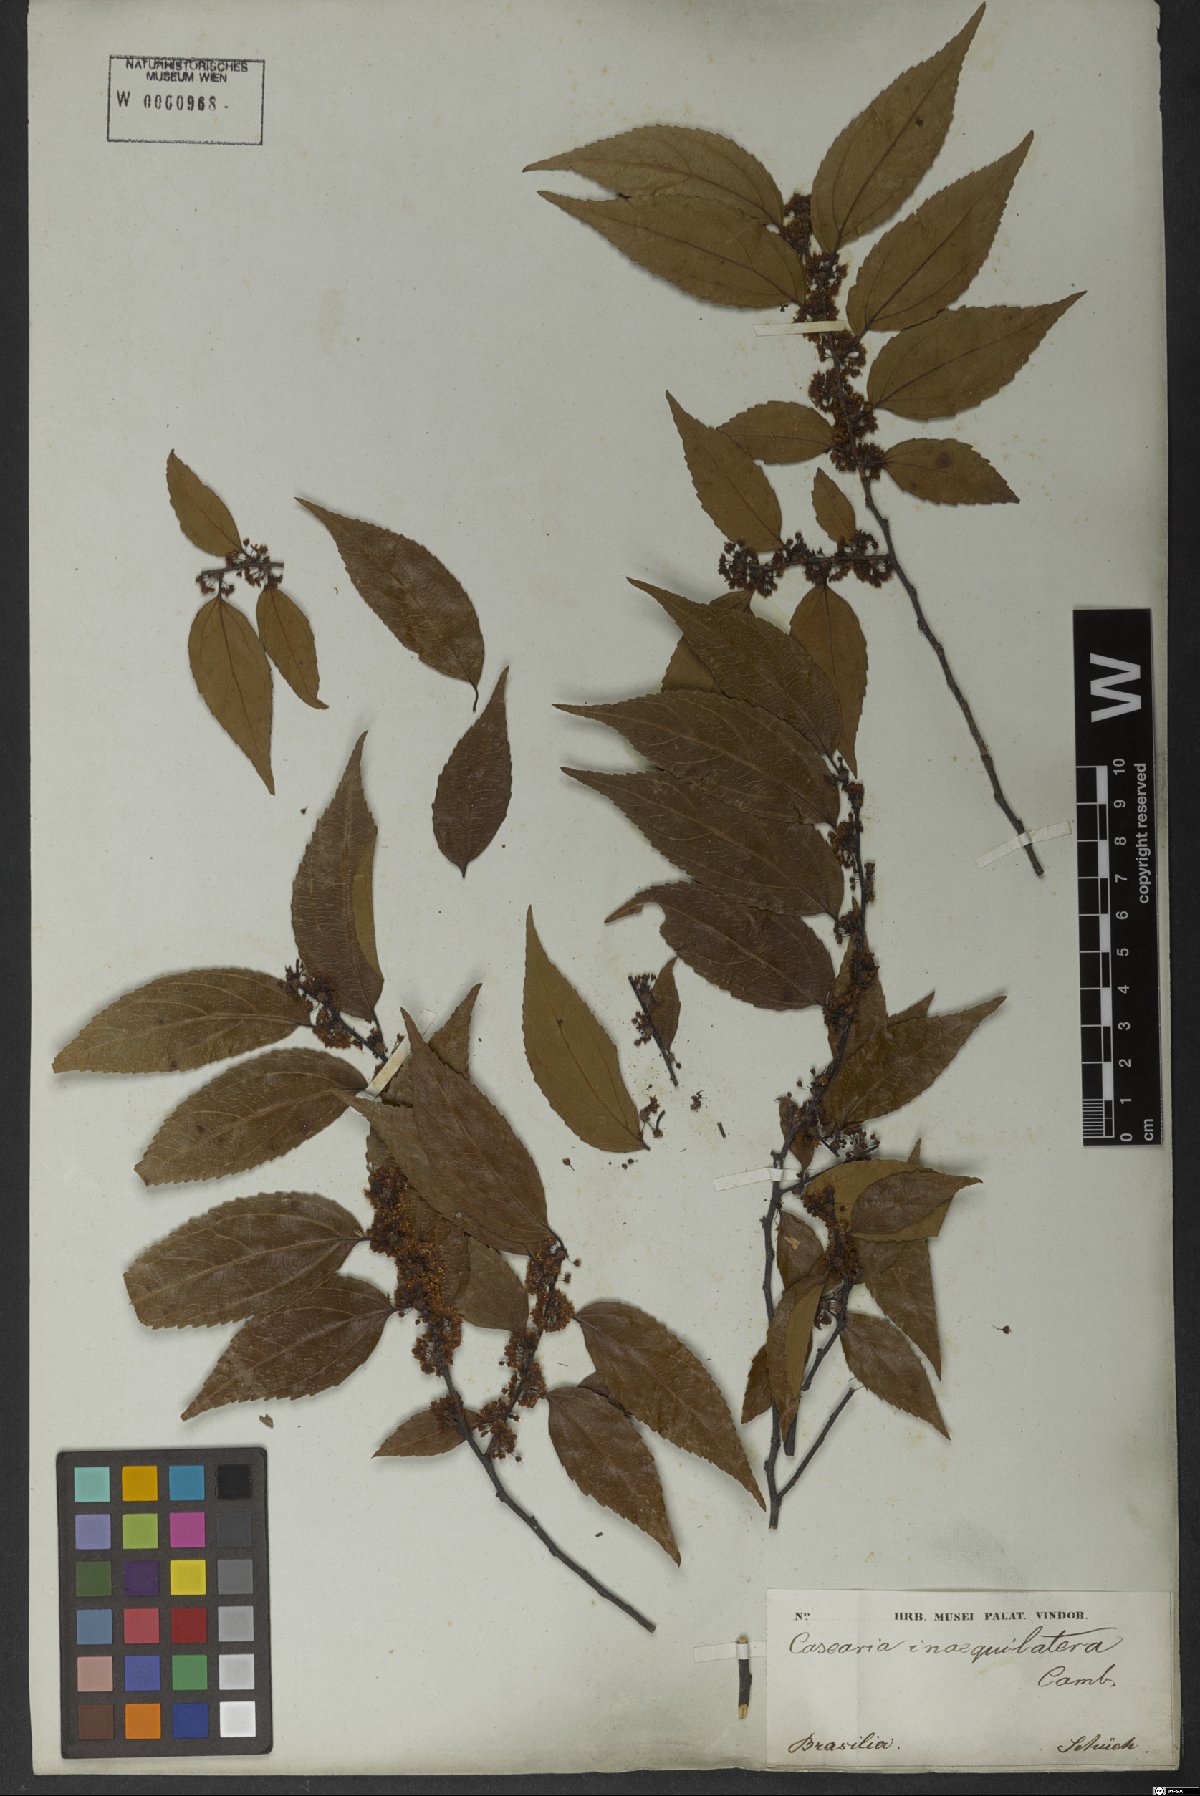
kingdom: Plantae
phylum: Tracheophyta
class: Magnoliopsida
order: Malpighiales
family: Salicaceae
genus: Casearia
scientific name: Casearia obliqua
